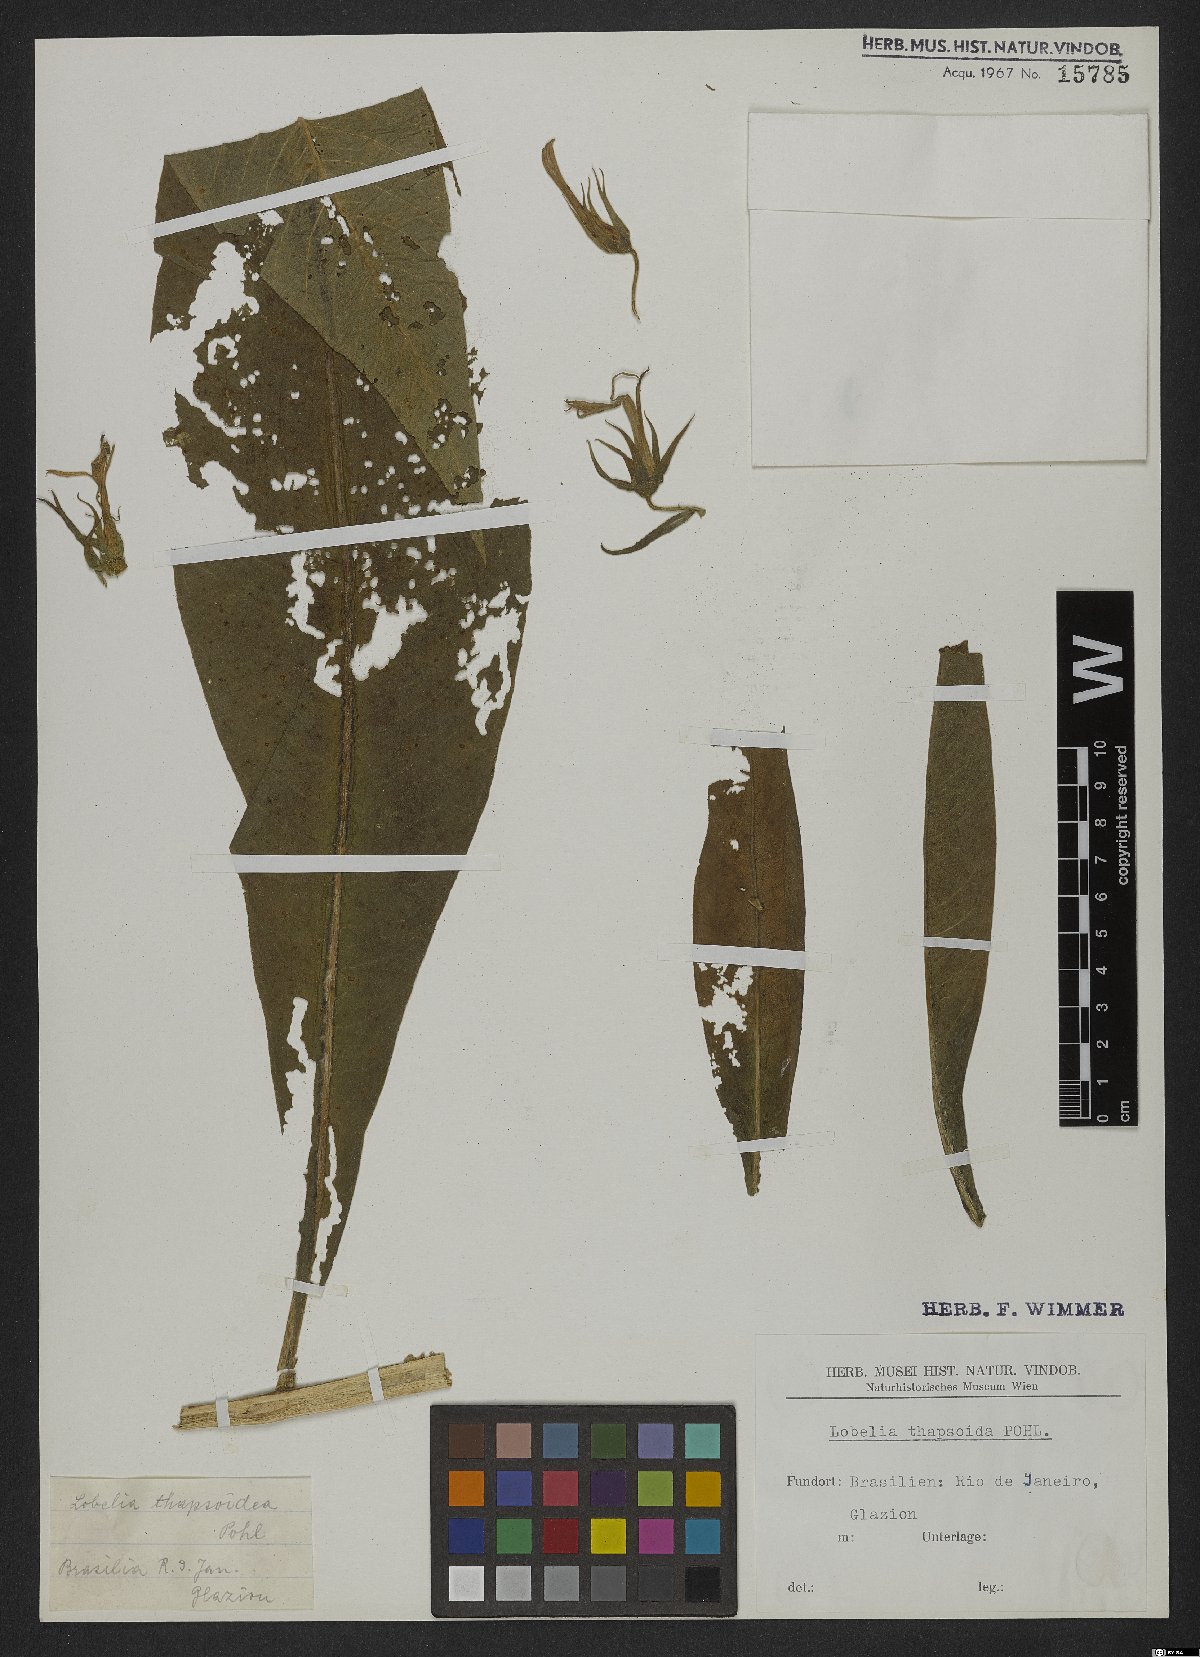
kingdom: Plantae
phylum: Tracheophyta
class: Magnoliopsida
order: Asterales
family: Campanulaceae
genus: Lobelia
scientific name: Lobelia thapsoidea
